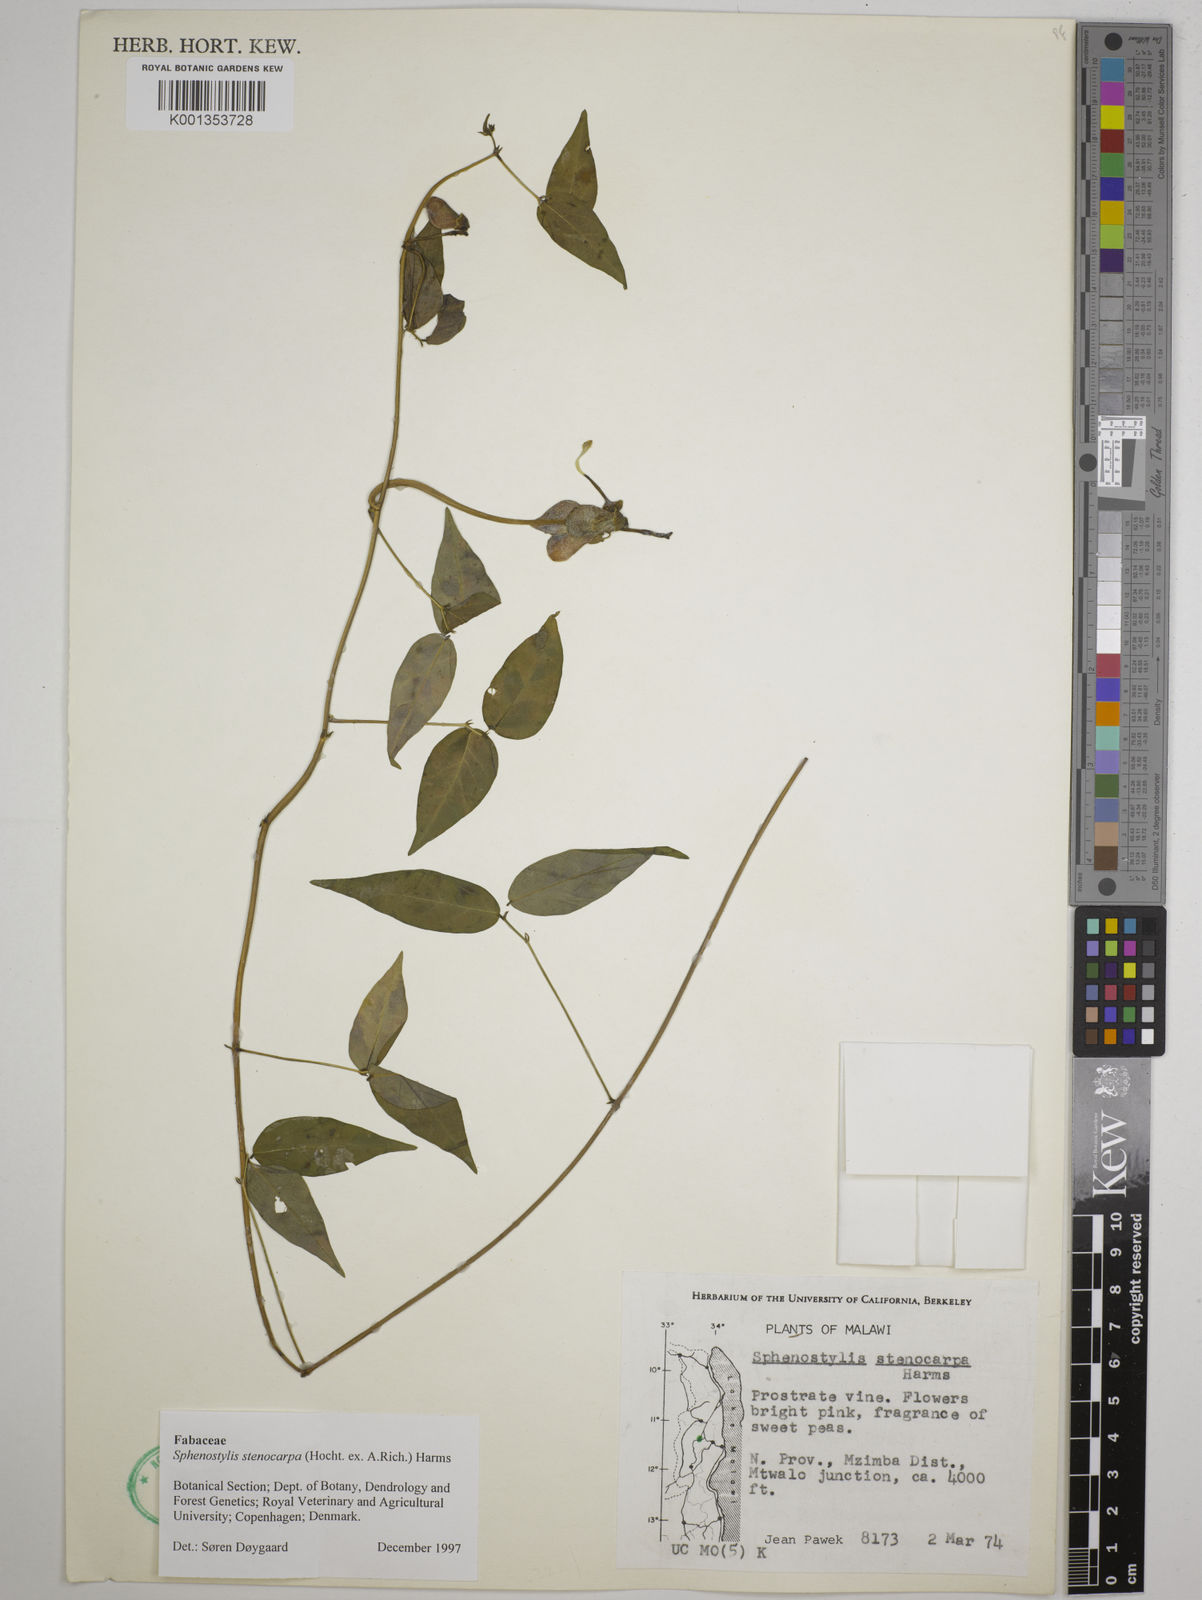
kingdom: Plantae
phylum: Tracheophyta
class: Magnoliopsida
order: Fabales
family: Fabaceae
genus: Sphenostylis
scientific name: Sphenostylis stenocarpa
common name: Yam-pea
